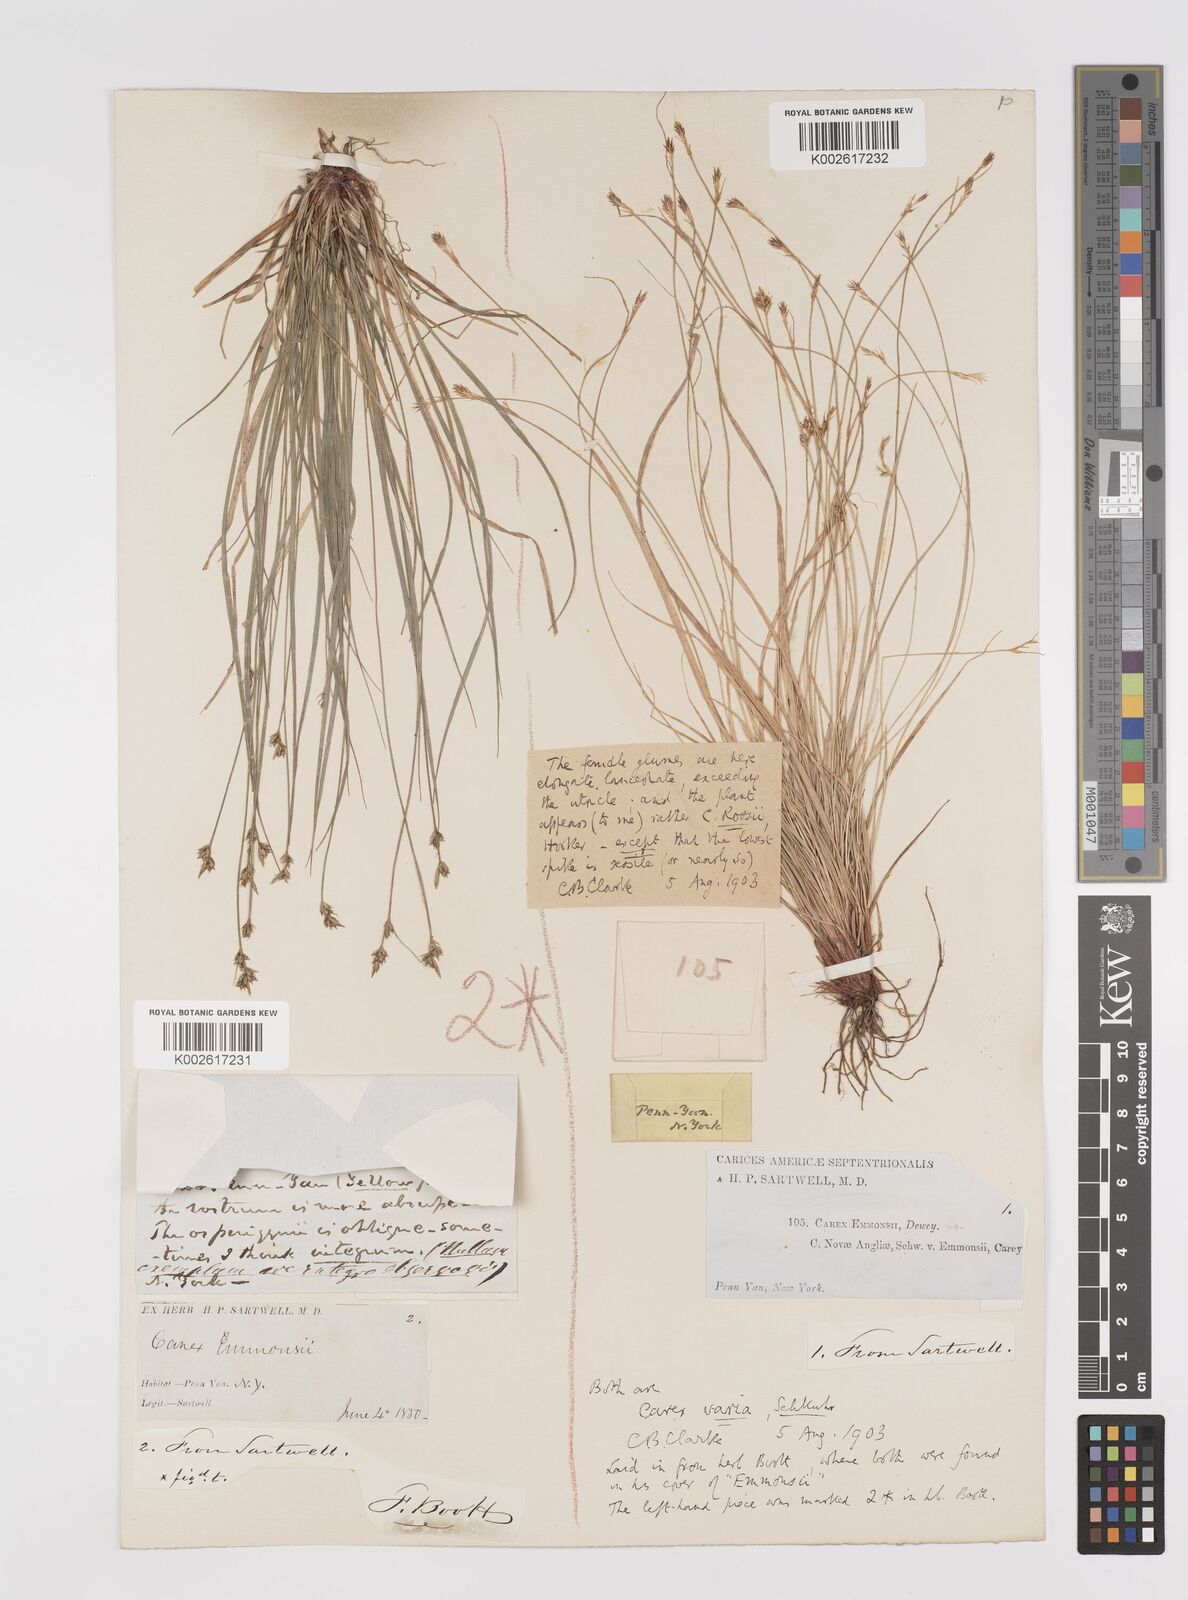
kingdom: Plantae
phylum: Tracheophyta
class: Liliopsida
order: Poales
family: Cyperaceae
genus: Carex
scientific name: Carex albicans
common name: Bellow-beaked sedge
